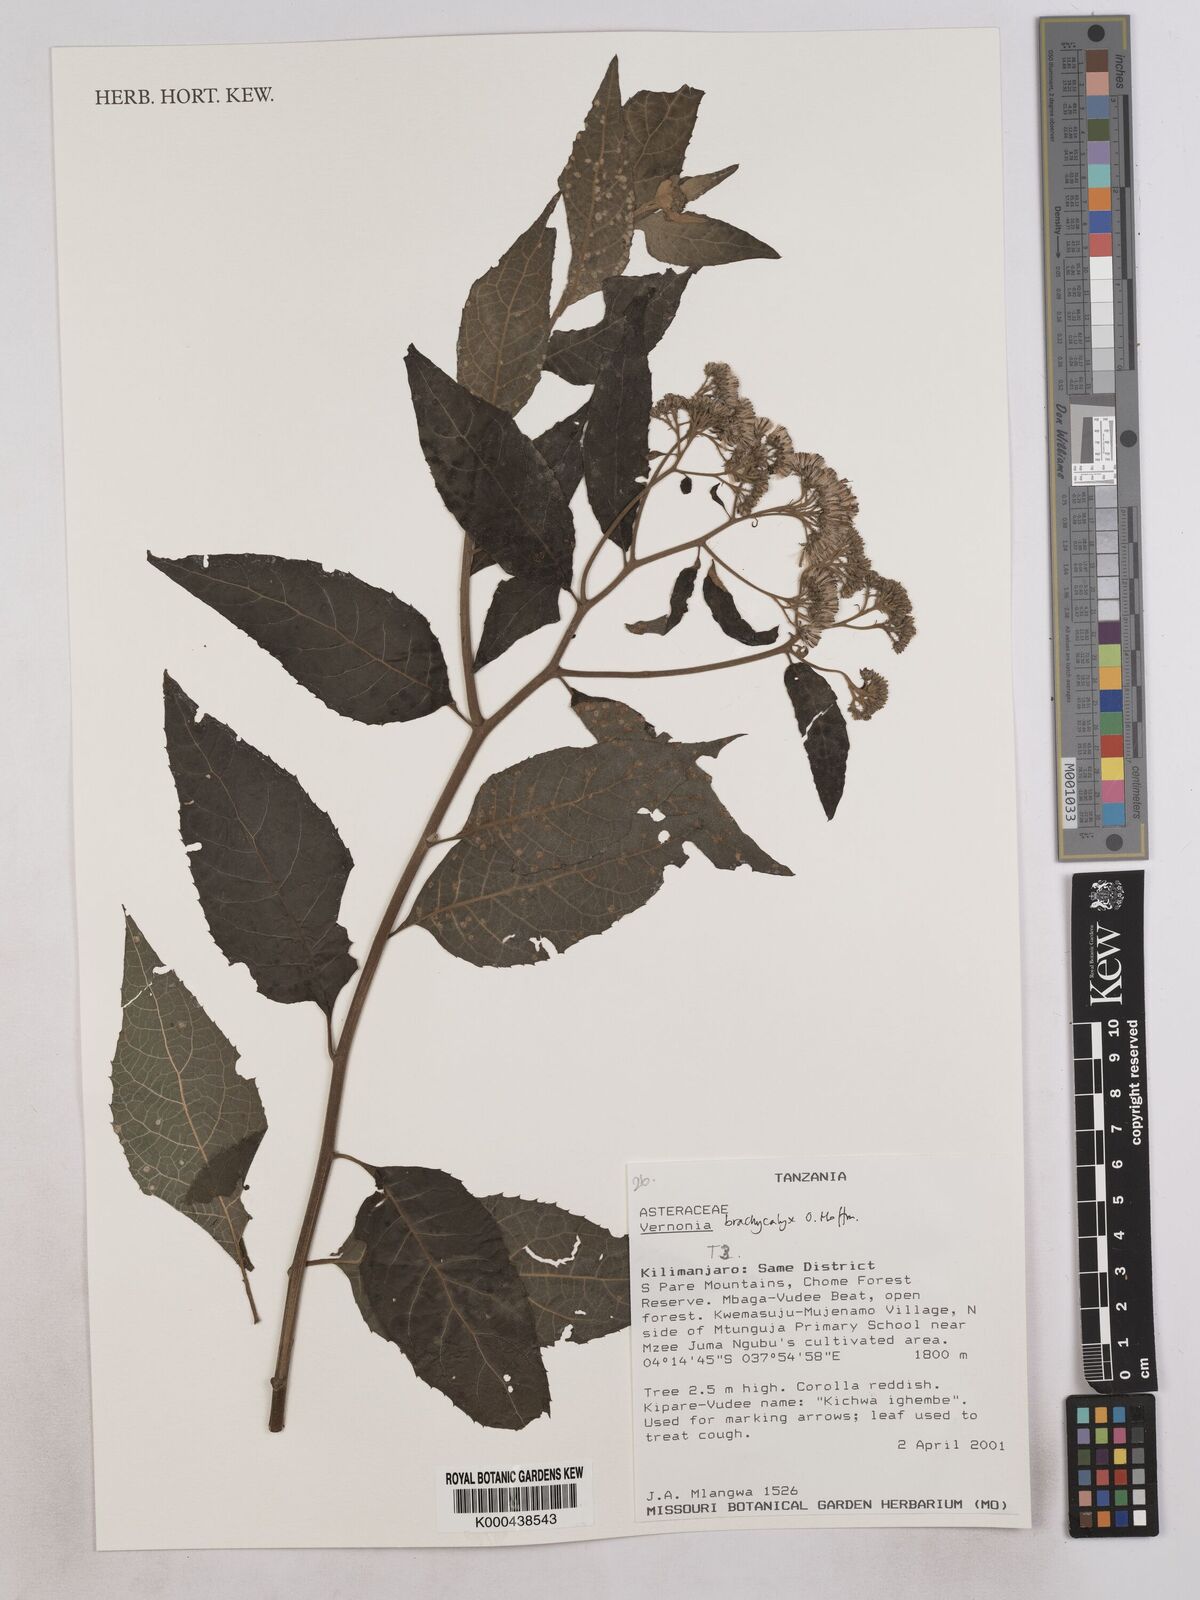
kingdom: Plantae
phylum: Tracheophyta
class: Magnoliopsida
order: Asterales
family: Asteraceae
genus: Hoffmannanthus
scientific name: Hoffmannanthus abbotianus
